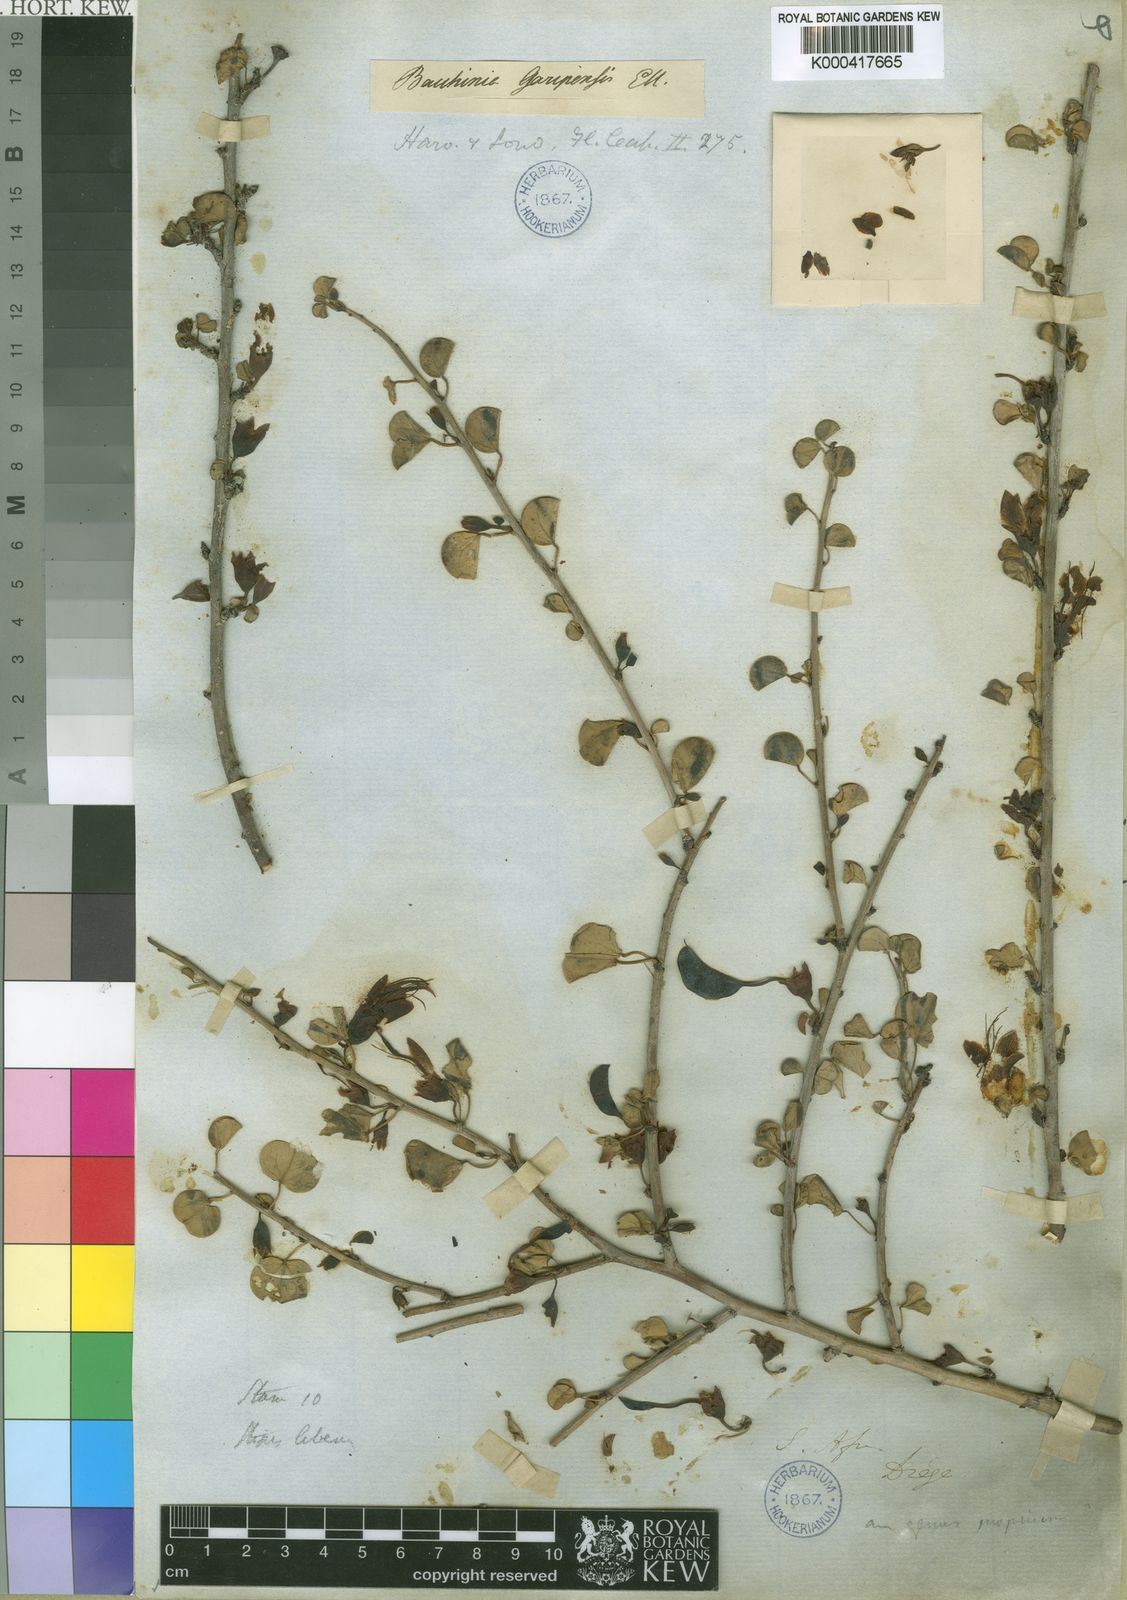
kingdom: Plantae
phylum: Tracheophyta
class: Magnoliopsida
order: Fabales
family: Fabaceae
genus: Adenolobus
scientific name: Adenolobus garipensis
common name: Butterfly-leaf
